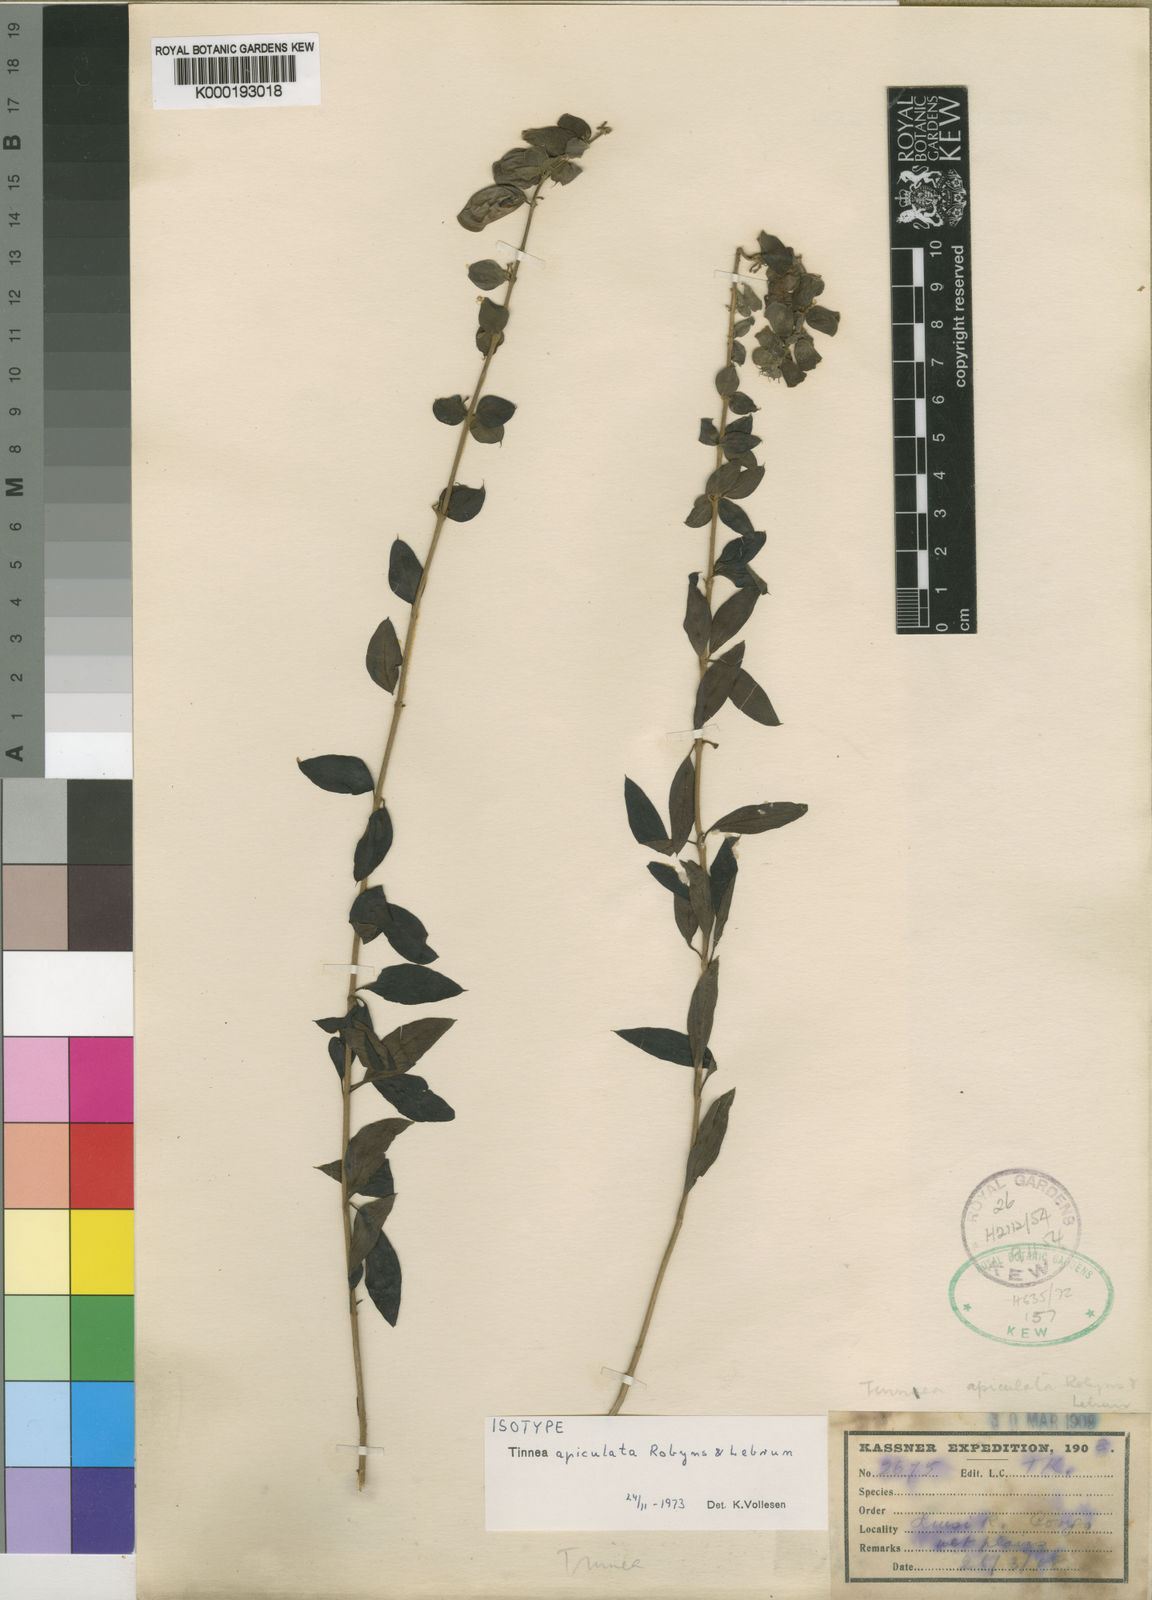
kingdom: Plantae
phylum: Tracheophyta
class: Magnoliopsida
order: Lamiales
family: Lamiaceae
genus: Tinnea
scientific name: Tinnea apiculata
